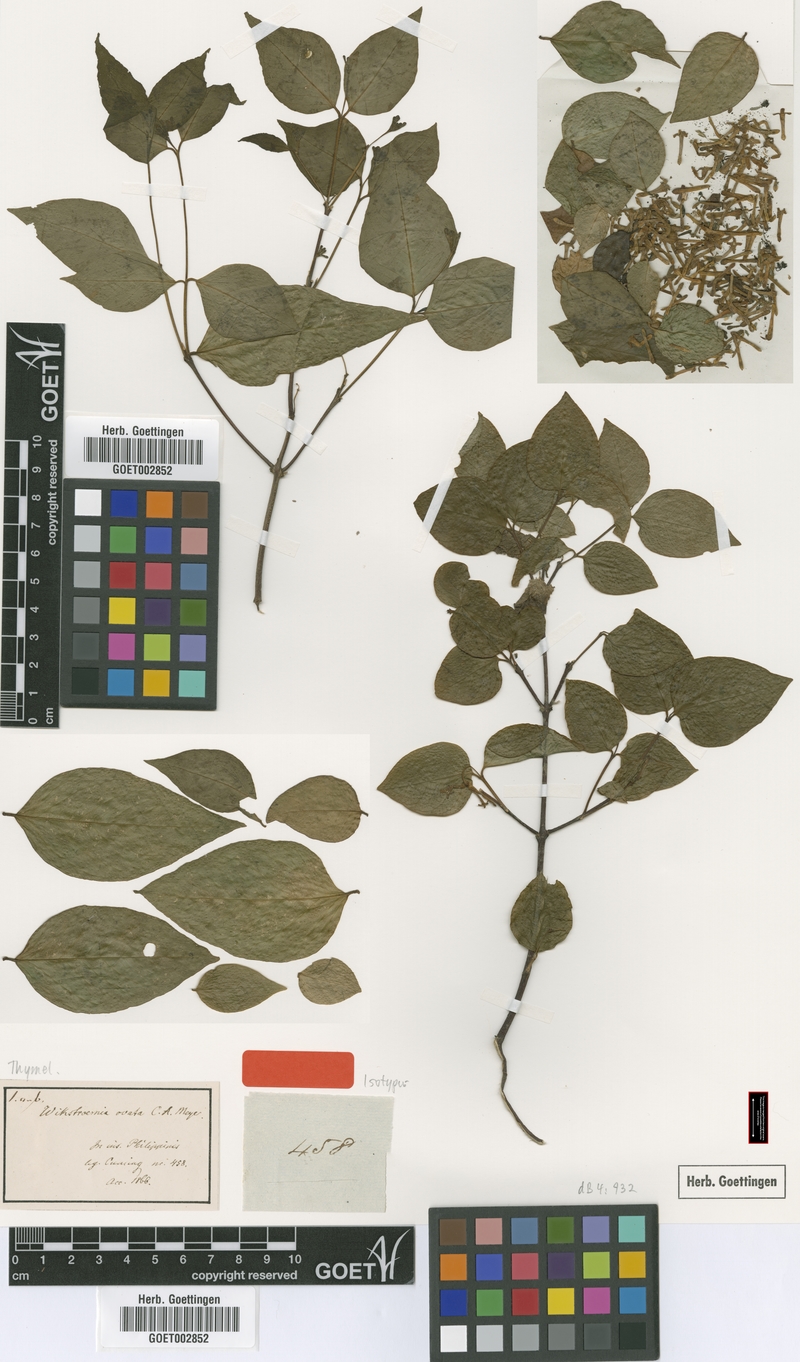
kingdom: Plantae
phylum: Tracheophyta
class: Magnoliopsida
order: Malvales
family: Thymelaeaceae
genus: Wikstroemia
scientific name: Wikstroemia ovata
